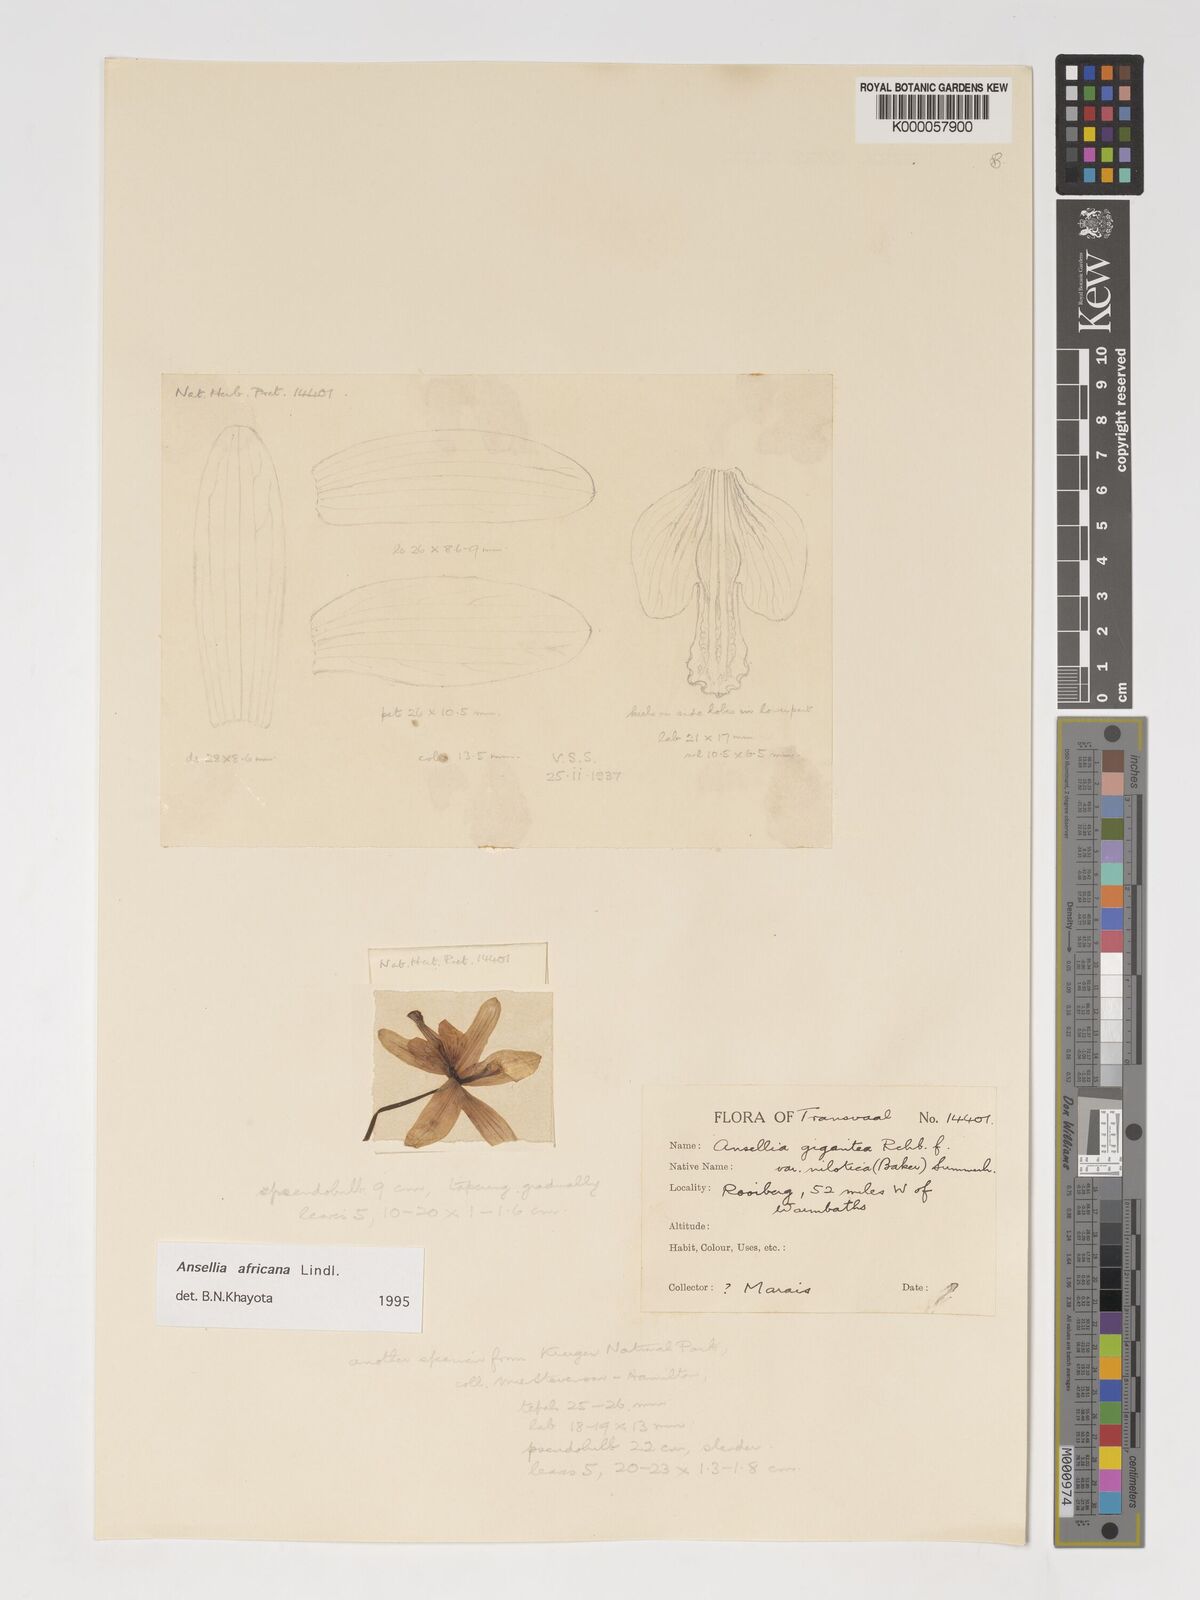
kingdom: Plantae
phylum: Tracheophyta
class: Liliopsida
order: Asparagales
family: Orchidaceae
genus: Ansellia
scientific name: Ansellia africana
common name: African ansellia
